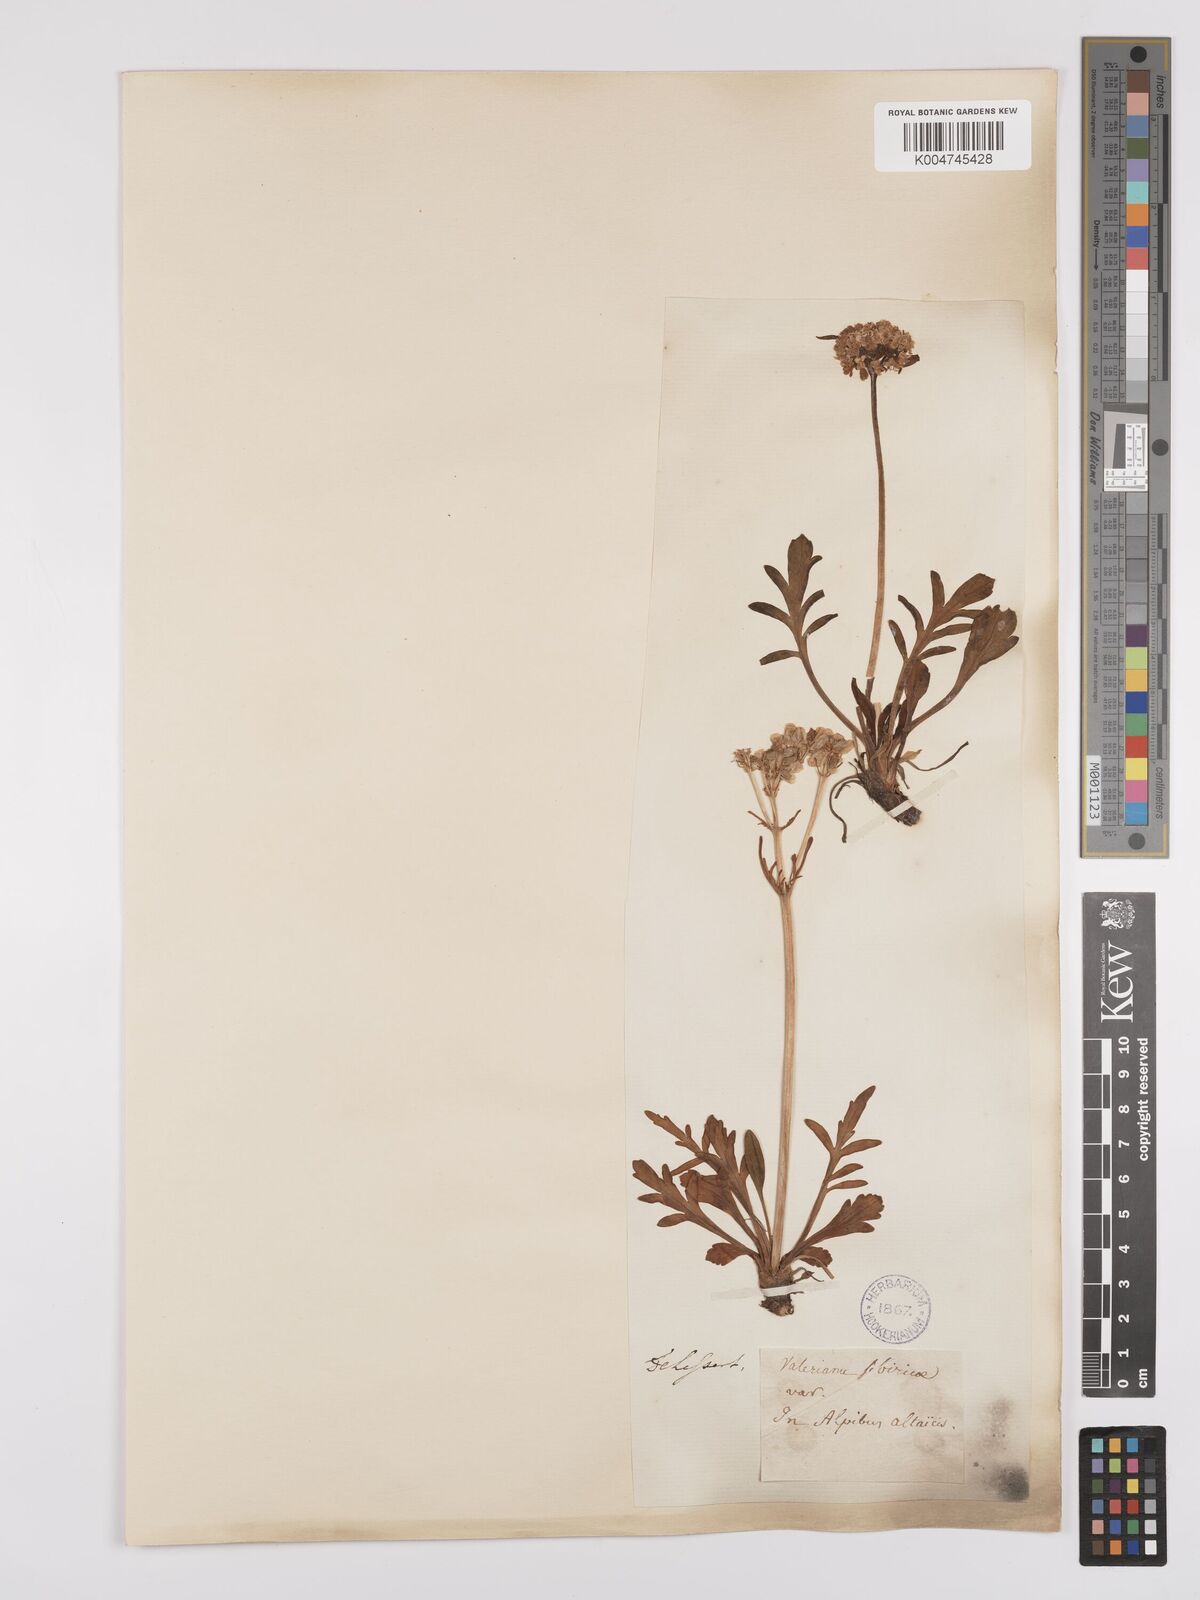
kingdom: Plantae
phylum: Tracheophyta
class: Magnoliopsida
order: Dipsacales
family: Caprifoliaceae
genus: Patrinia
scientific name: Patrinia sibirica
